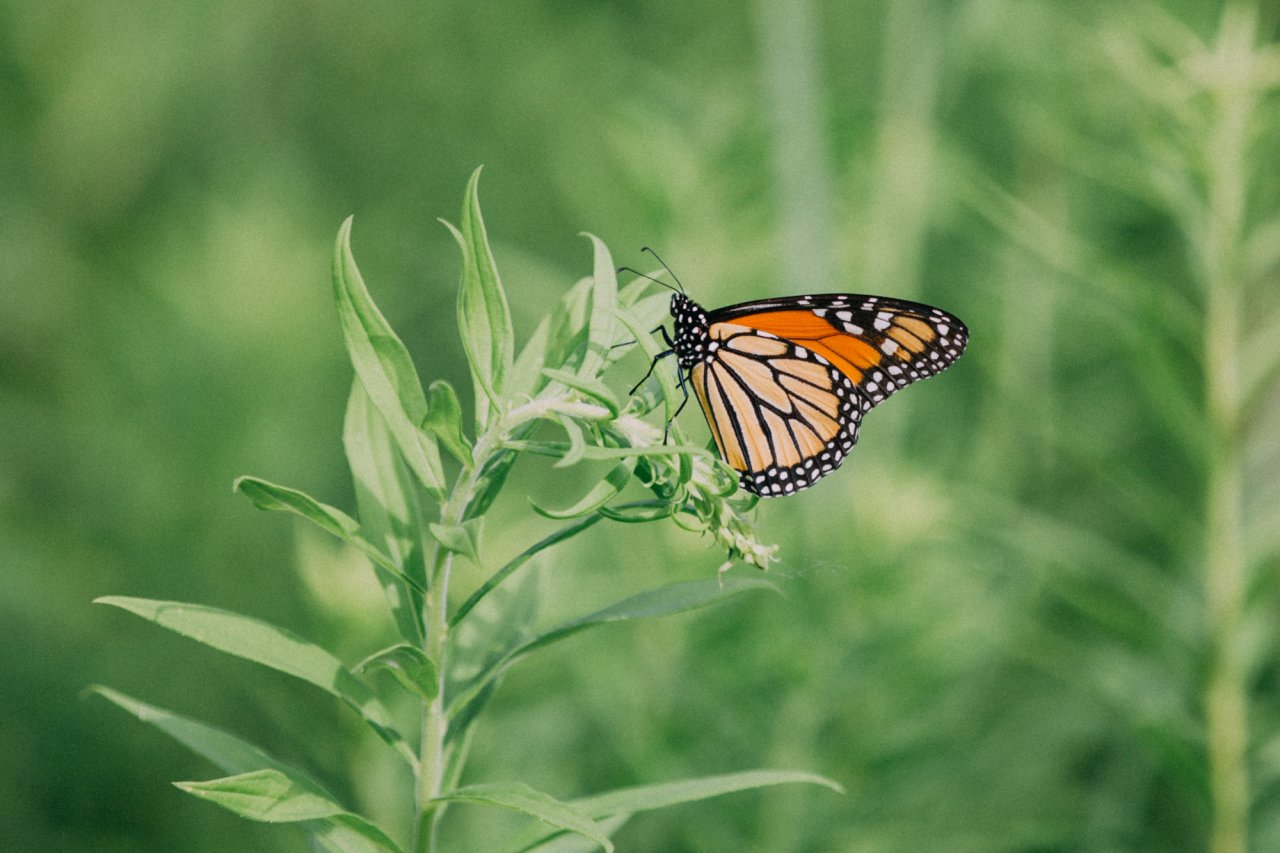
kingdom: Animalia
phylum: Arthropoda
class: Insecta
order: Lepidoptera
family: Nymphalidae
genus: Danaus
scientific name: Danaus plexippus
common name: Monarch
